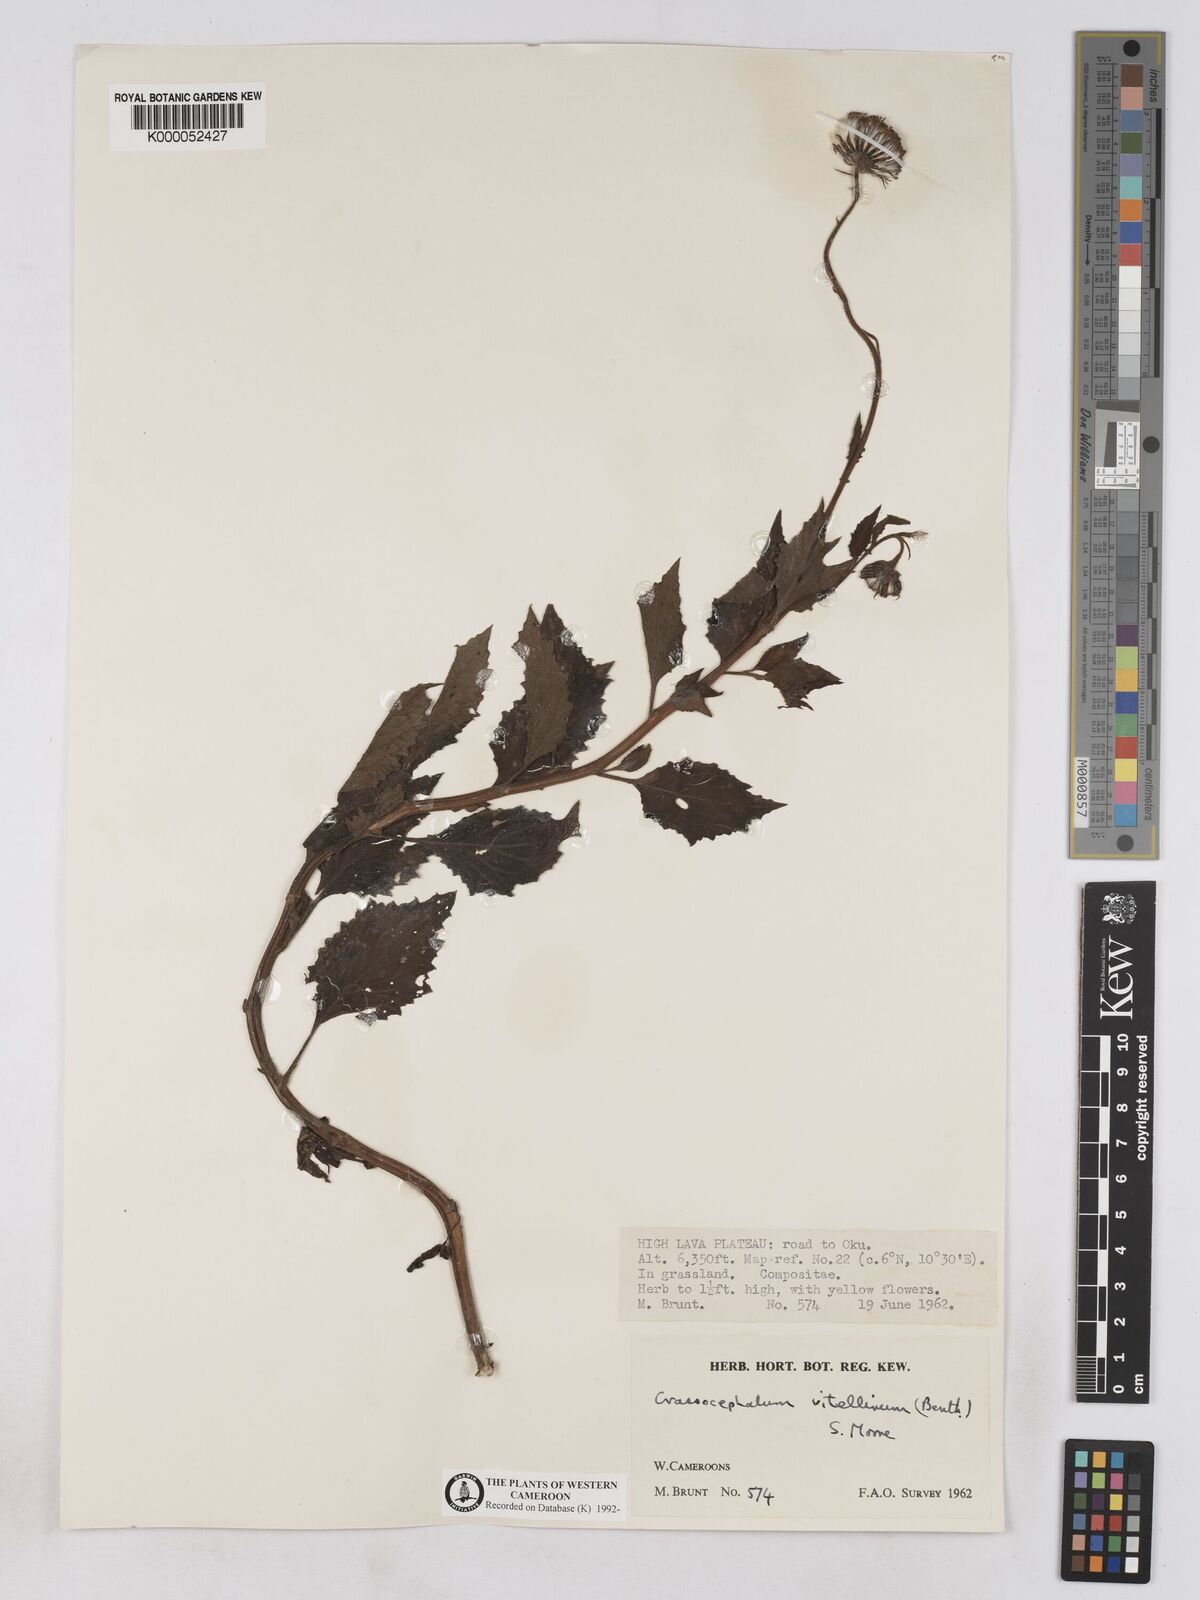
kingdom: Plantae
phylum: Tracheophyta
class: Magnoliopsida
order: Asterales
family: Asteraceae
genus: Crassocephalum
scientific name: Crassocephalum vitellinum
